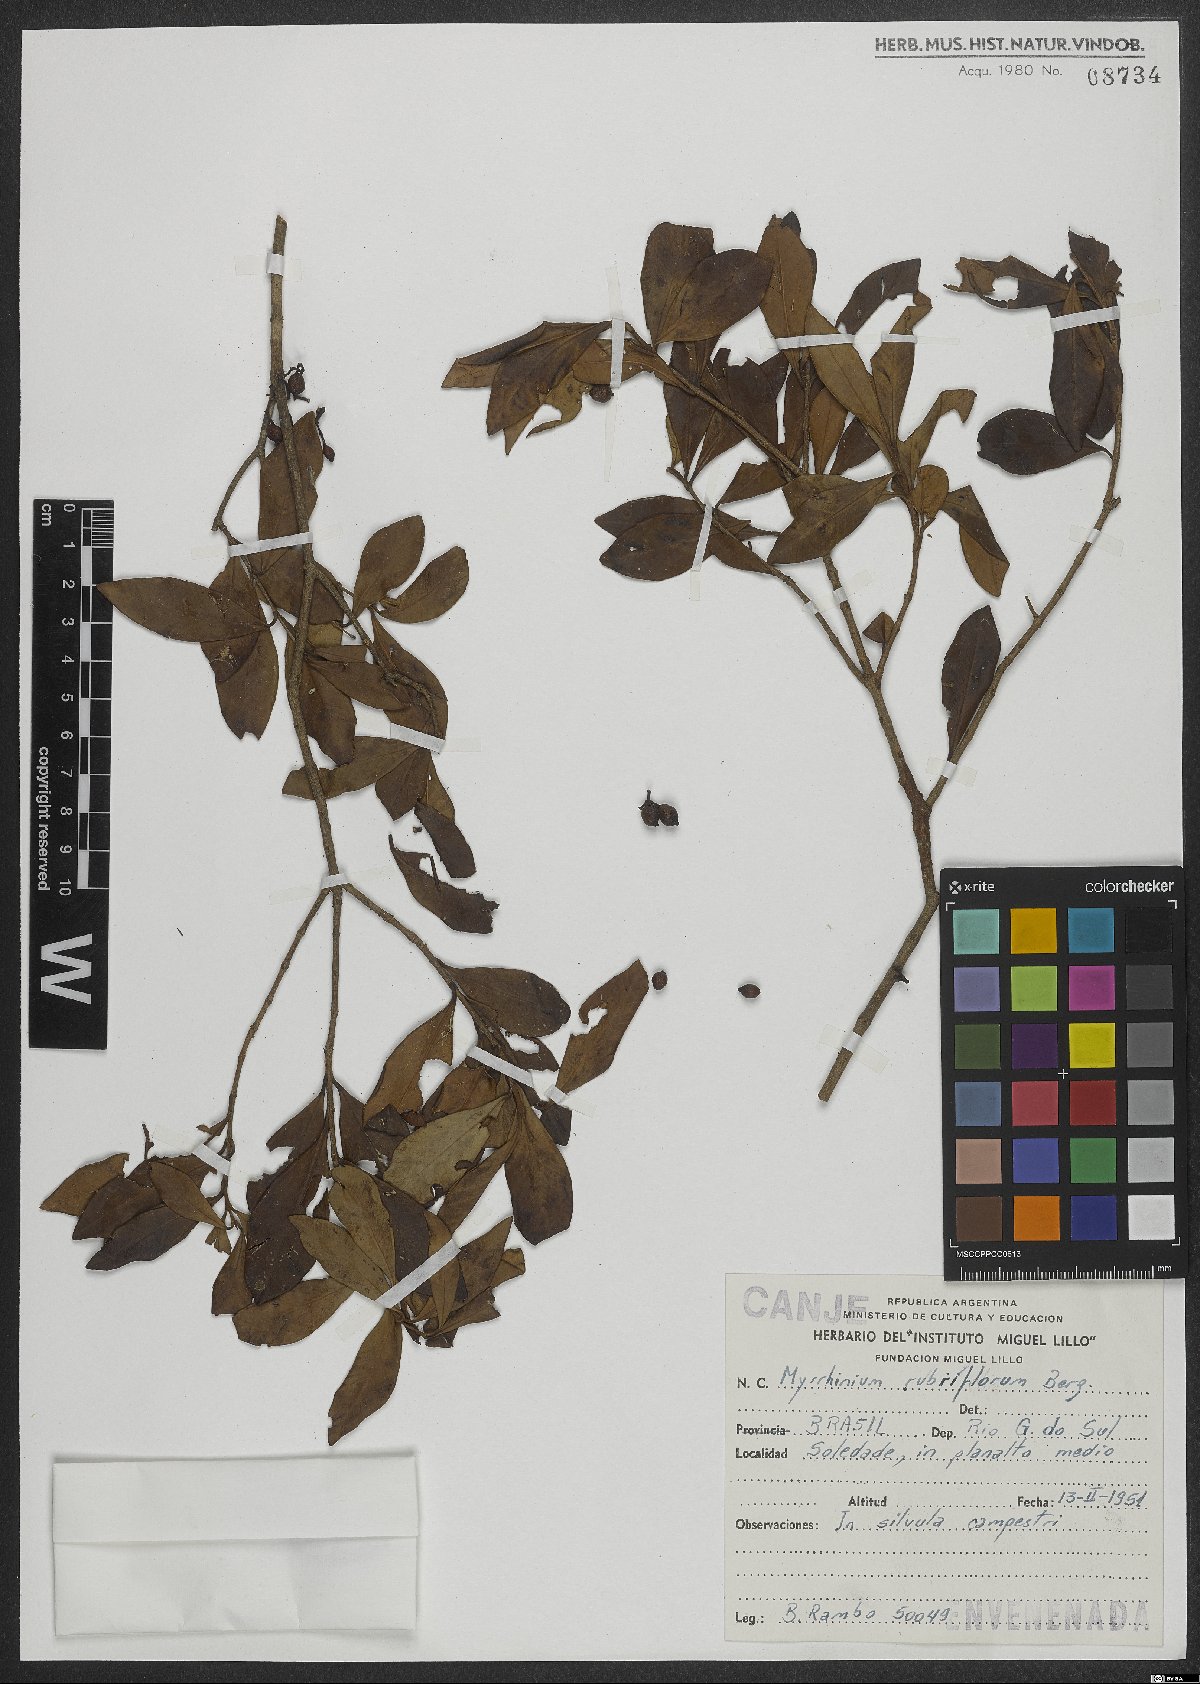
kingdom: Plantae
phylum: Tracheophyta
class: Magnoliopsida
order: Myrtales
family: Myrtaceae
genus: Myrrhinium
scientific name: Myrrhinium atropurpureum
